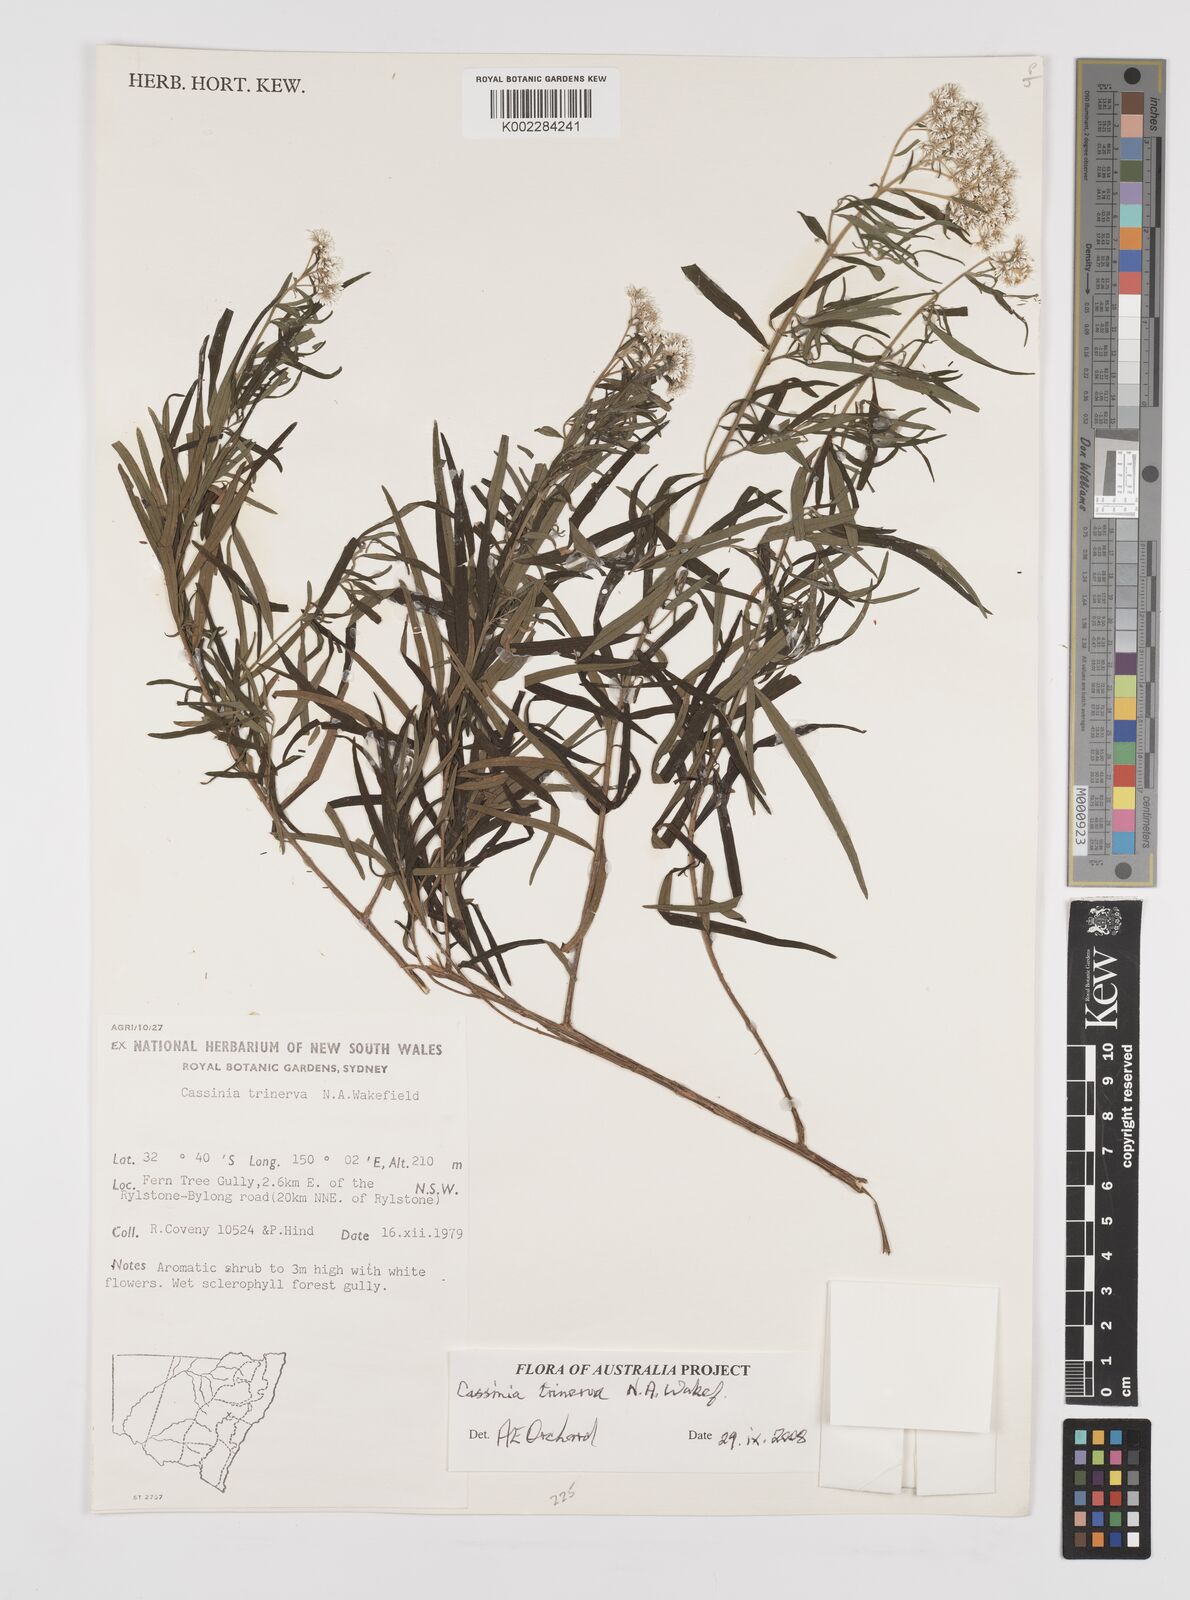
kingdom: Plantae
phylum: Tracheophyta
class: Magnoliopsida
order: Asterales
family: Asteraceae
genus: Cassinia
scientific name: Cassinia trinerva
